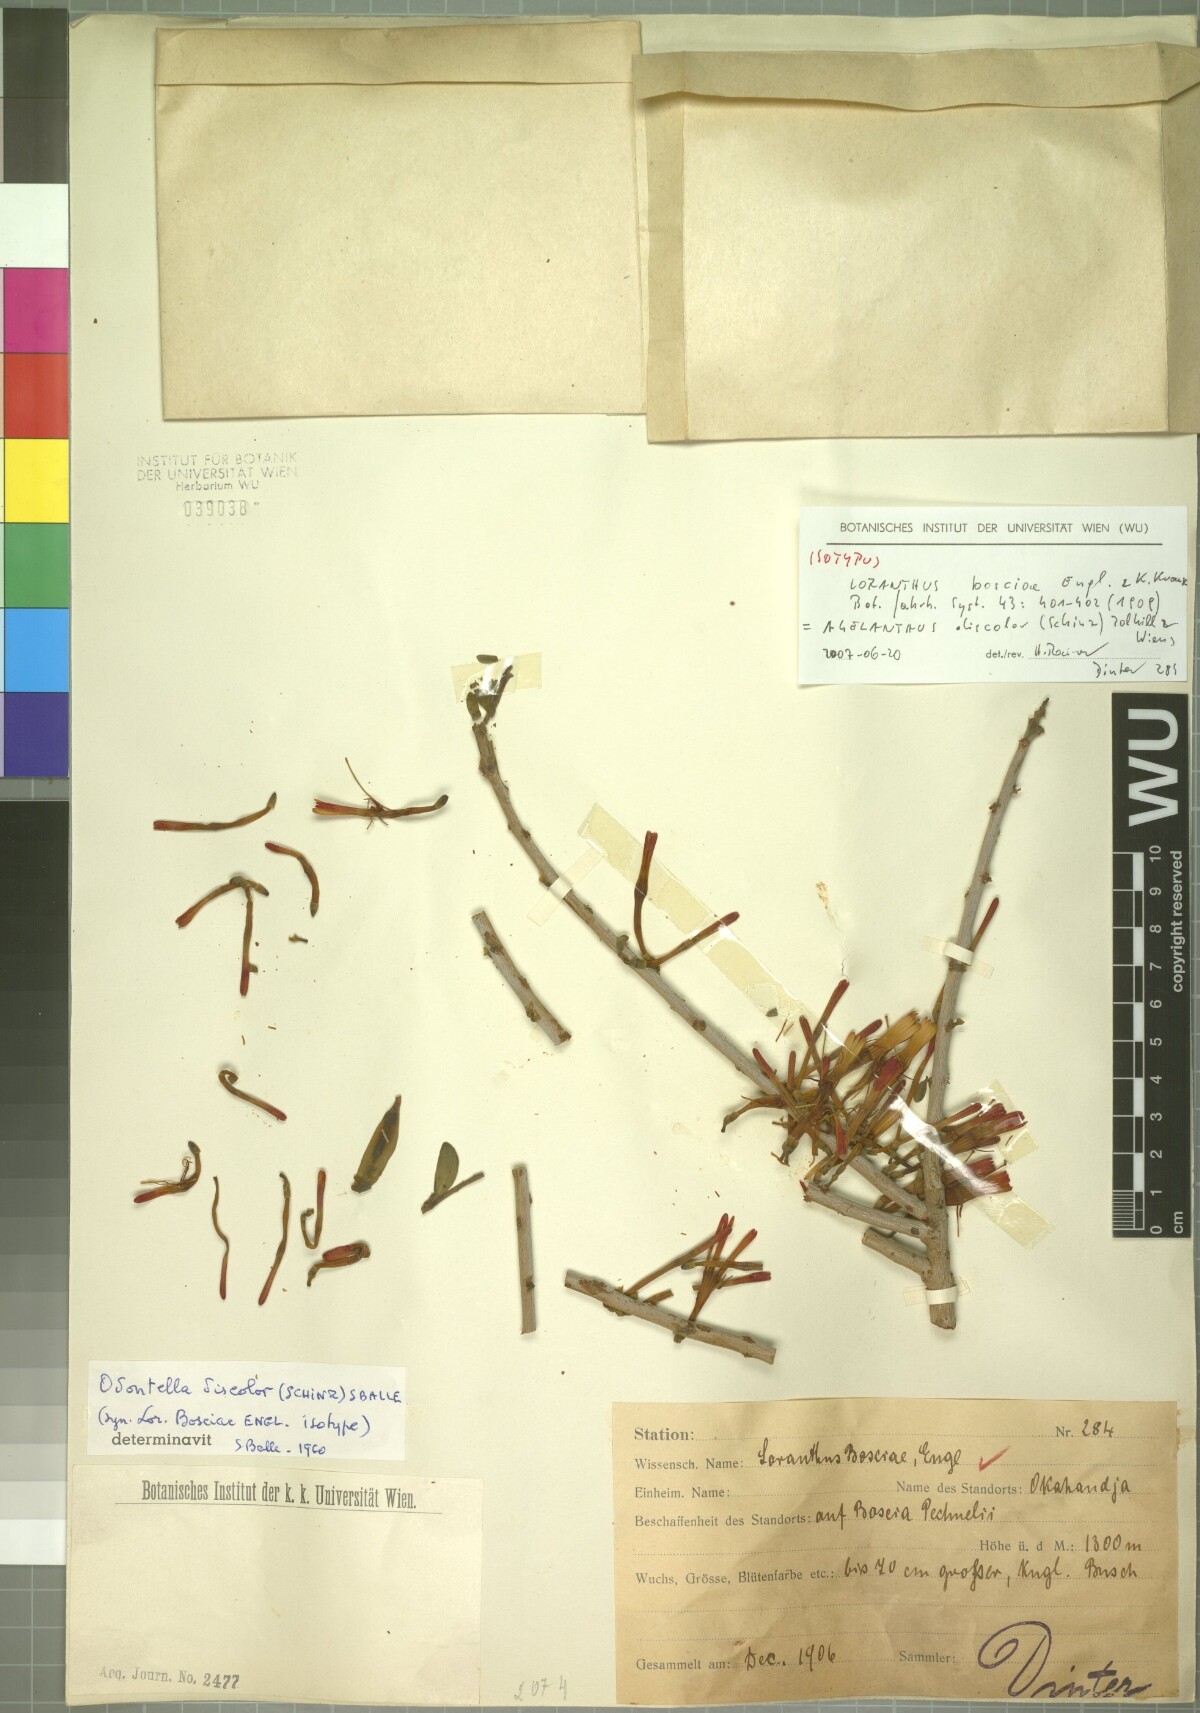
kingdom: Plantae
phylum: Tracheophyta
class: Magnoliopsida
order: Santalales
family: Loranthaceae
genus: Agelanthus
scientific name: Agelanthus discolor
